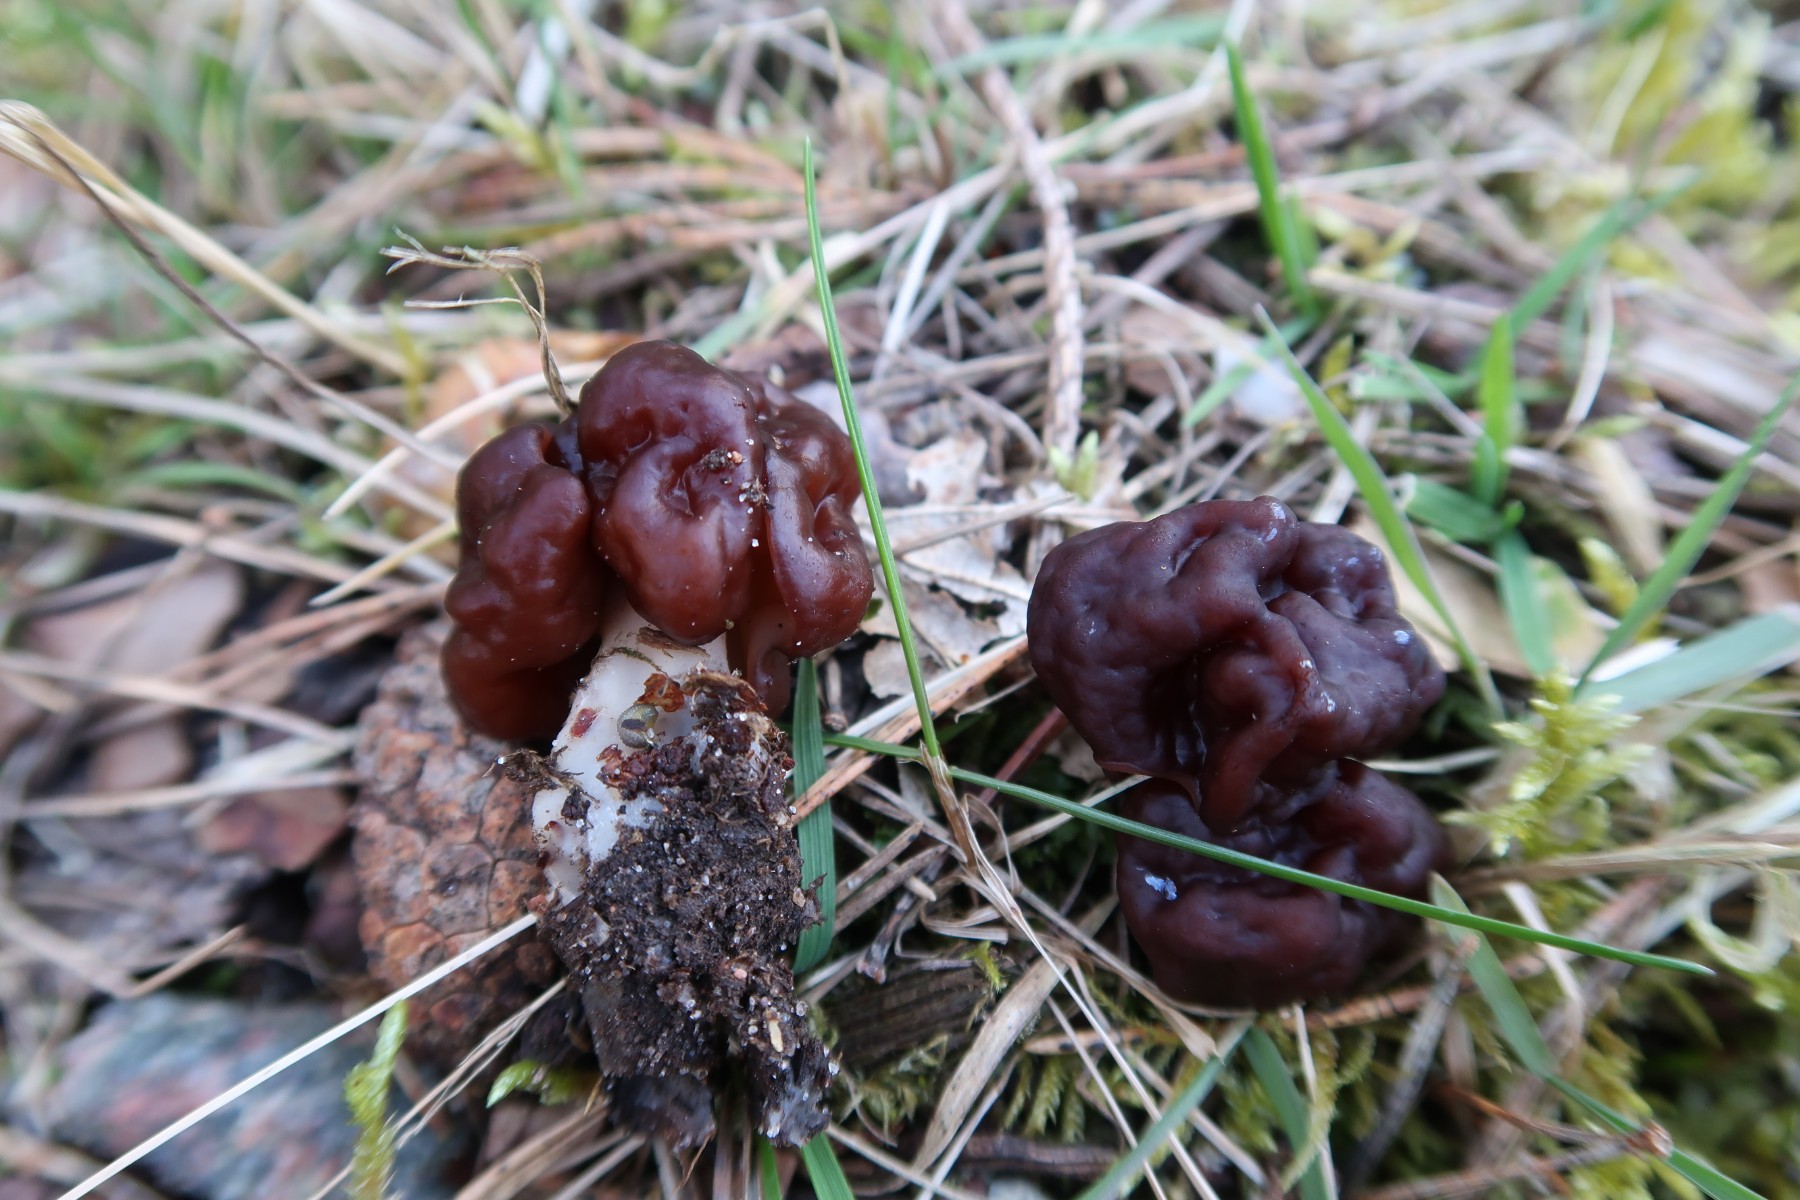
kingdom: Fungi
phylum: Ascomycota
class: Pezizomycetes
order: Pezizales
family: Discinaceae
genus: Gyromitra
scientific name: Gyromitra esculenta
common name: ægte stenmorkel
